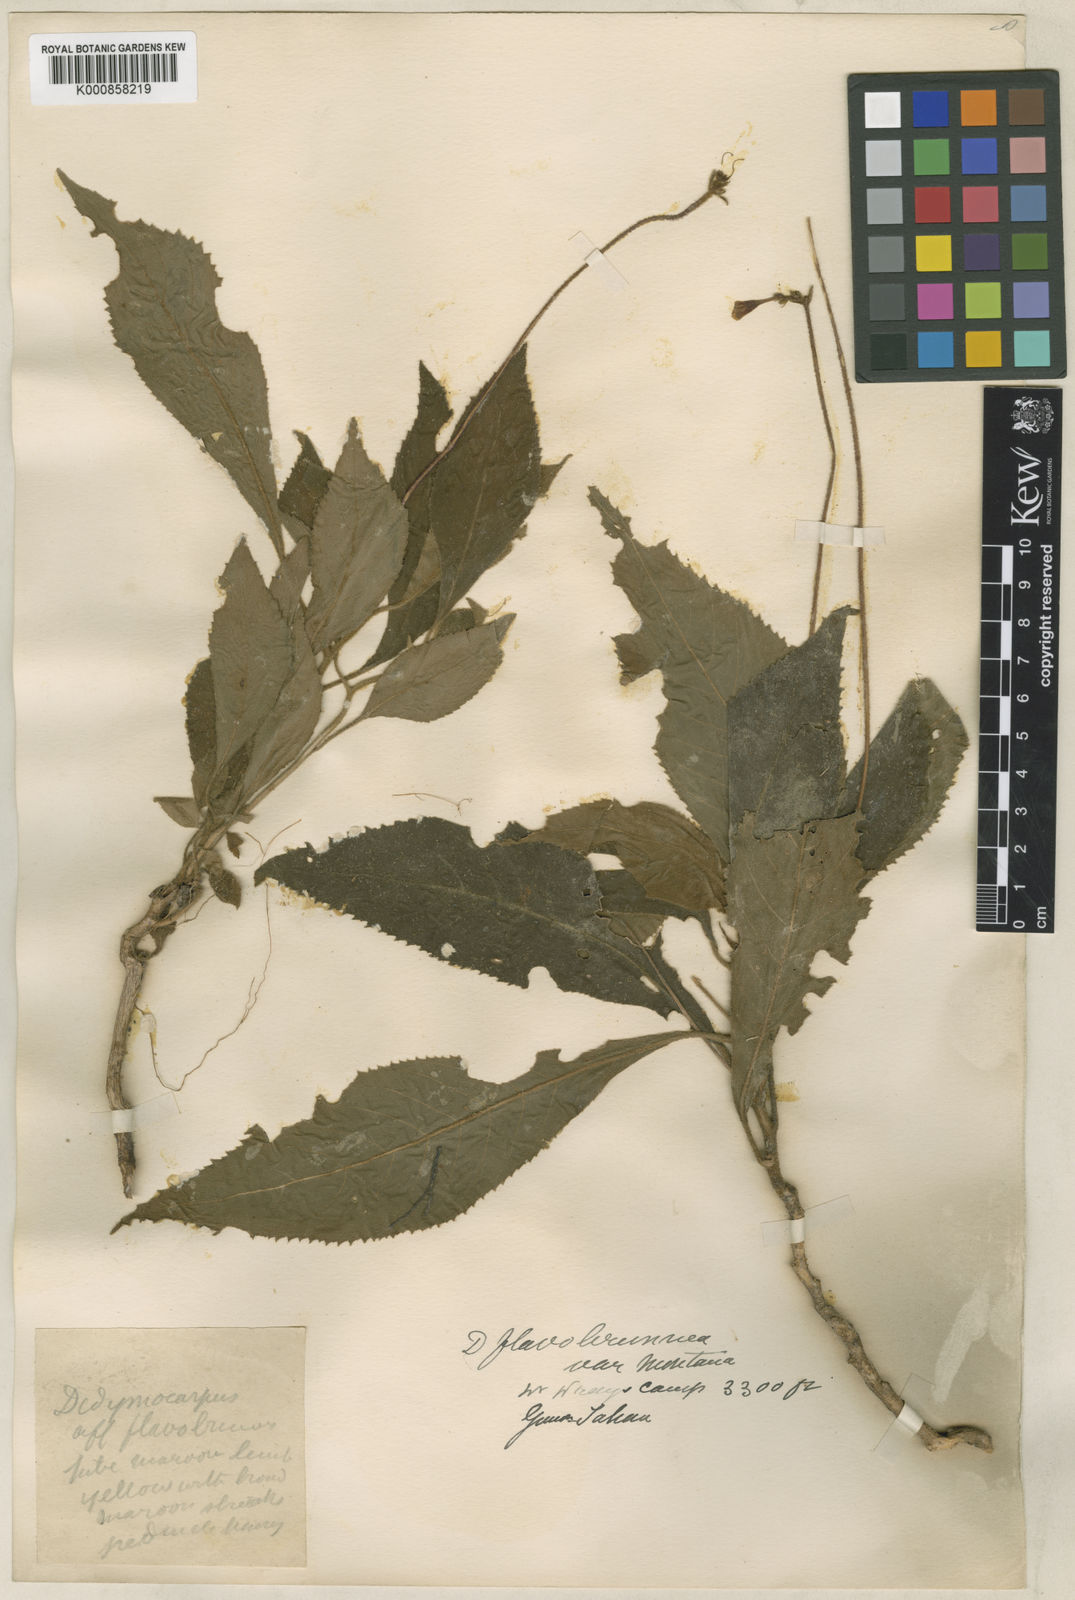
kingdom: Plantae
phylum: Tracheophyta
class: Magnoliopsida
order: Lamiales
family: Gesneriaceae
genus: Codonoboea
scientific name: Codonoboea flavobrunnea
